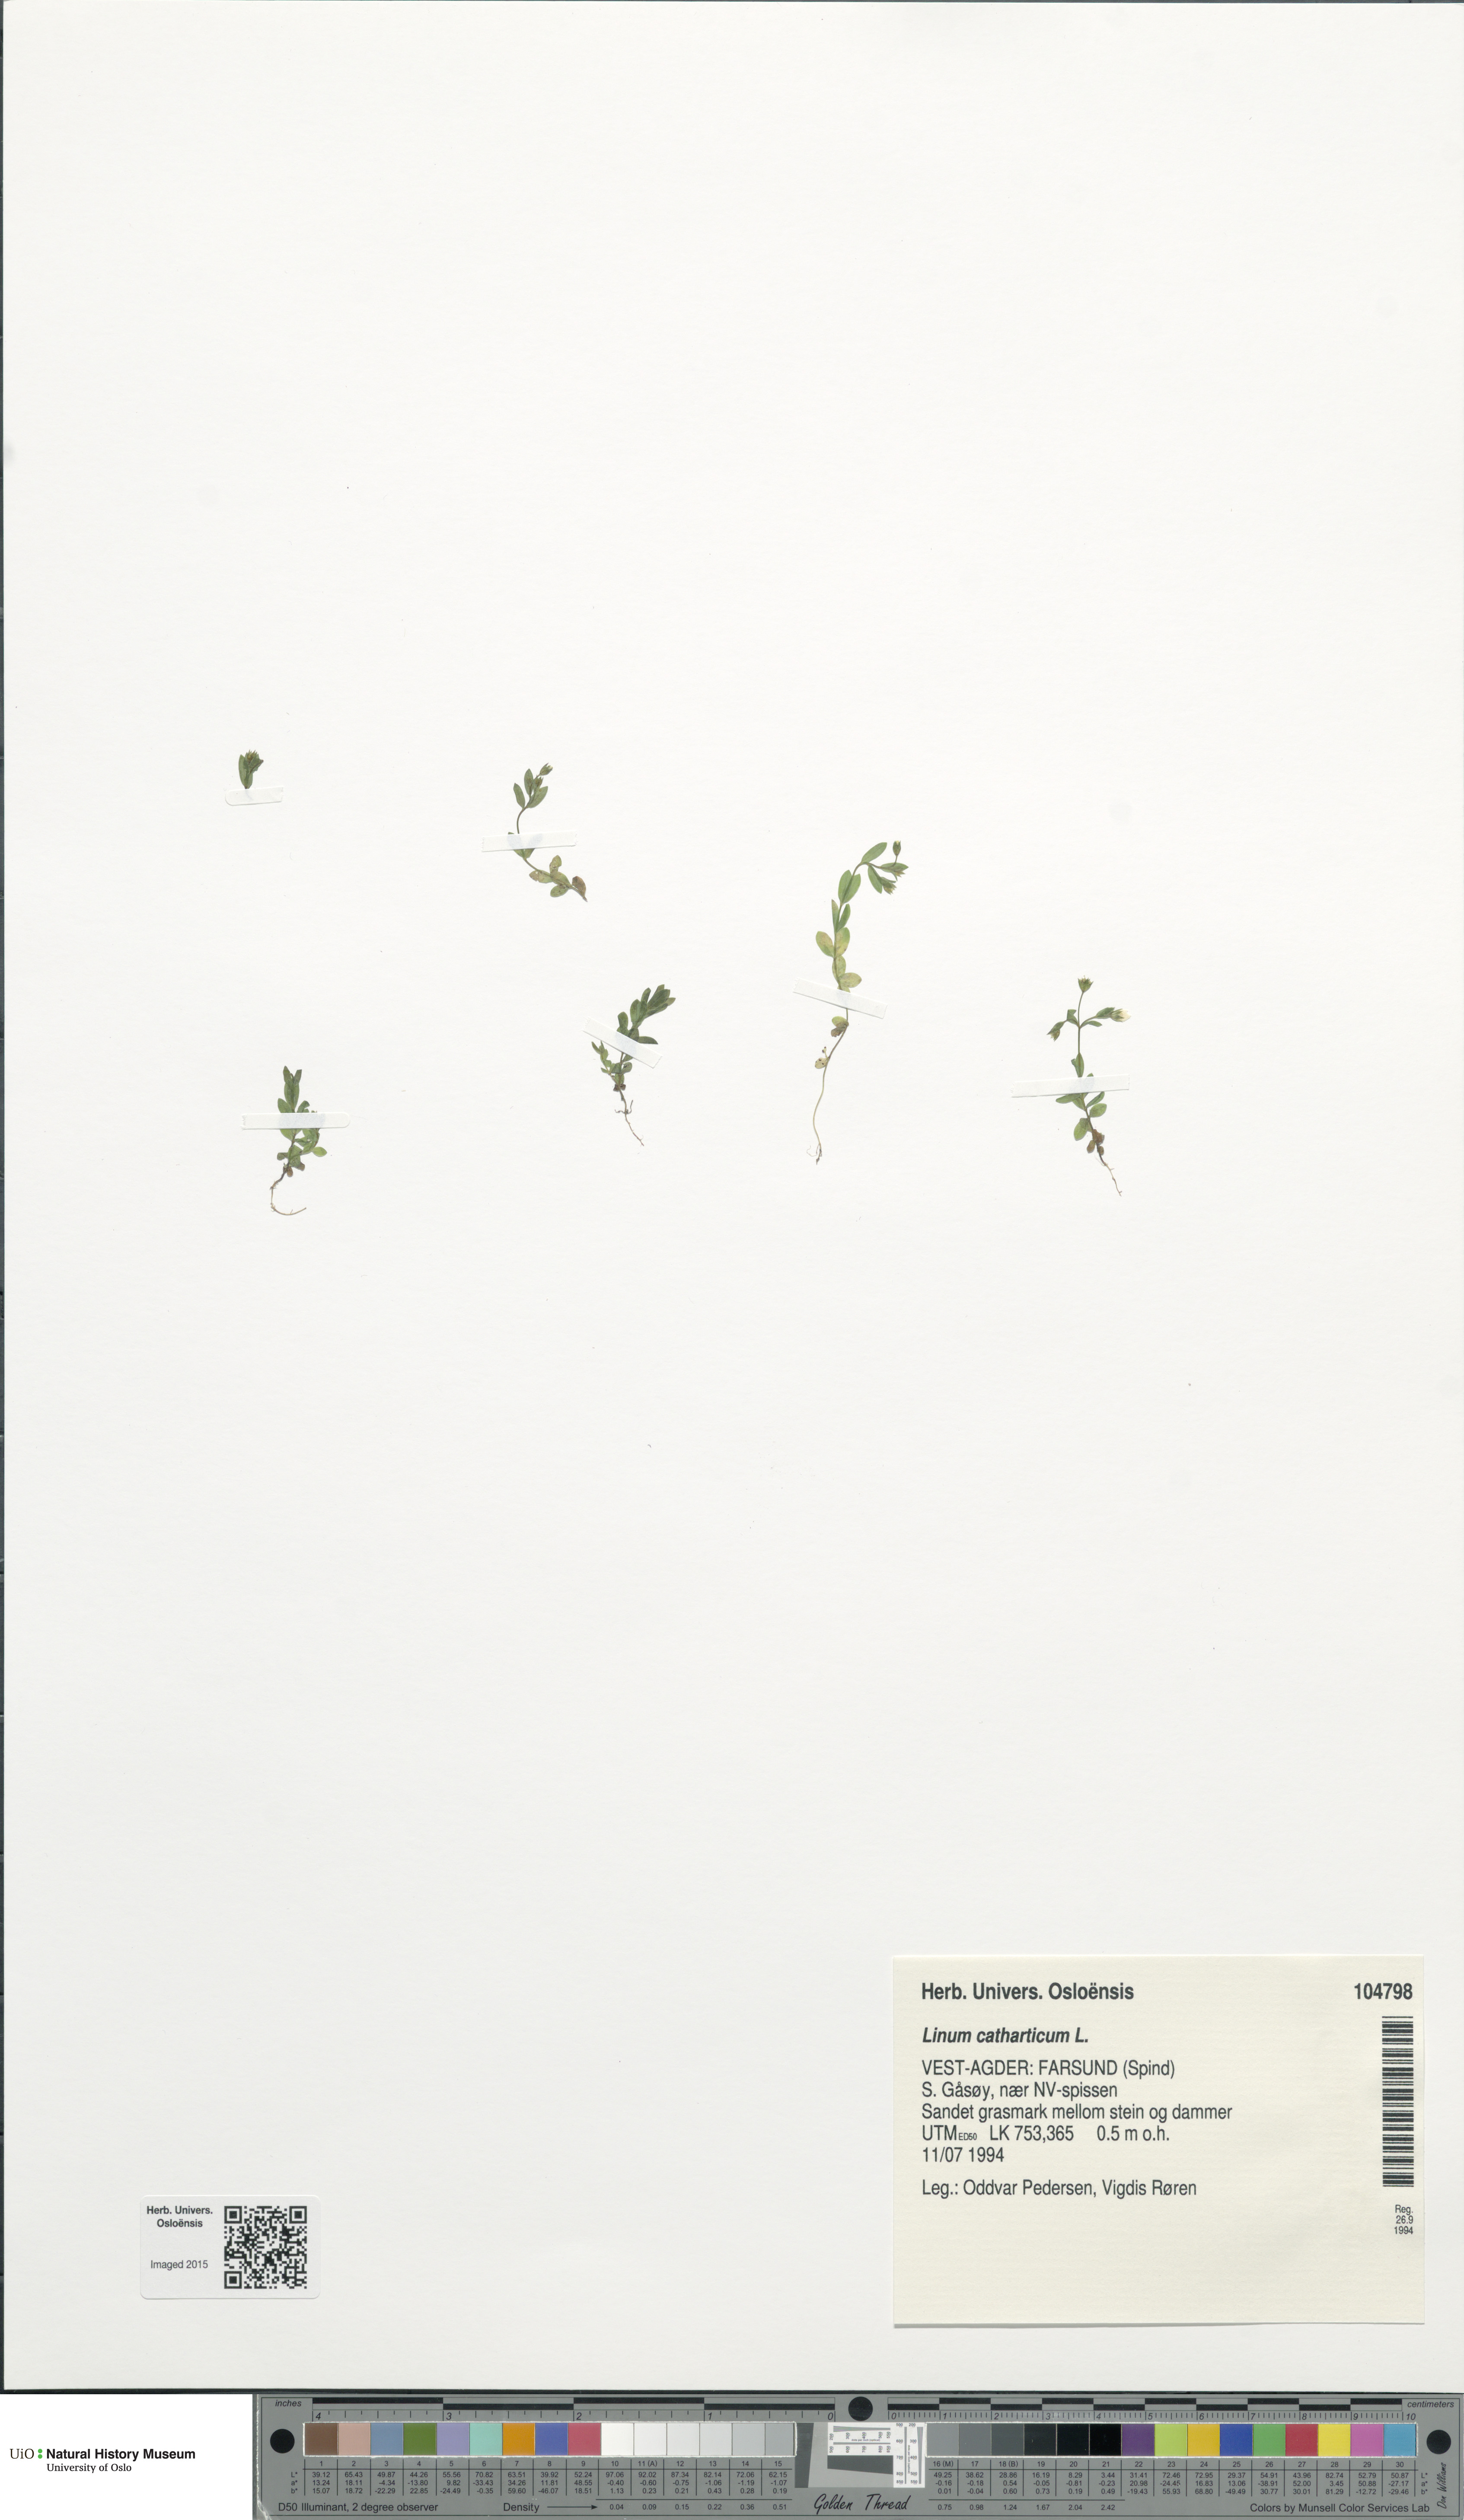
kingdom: Plantae
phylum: Tracheophyta
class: Magnoliopsida
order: Malpighiales
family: Linaceae
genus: Linum
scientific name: Linum catharticum
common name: Fairy flax
